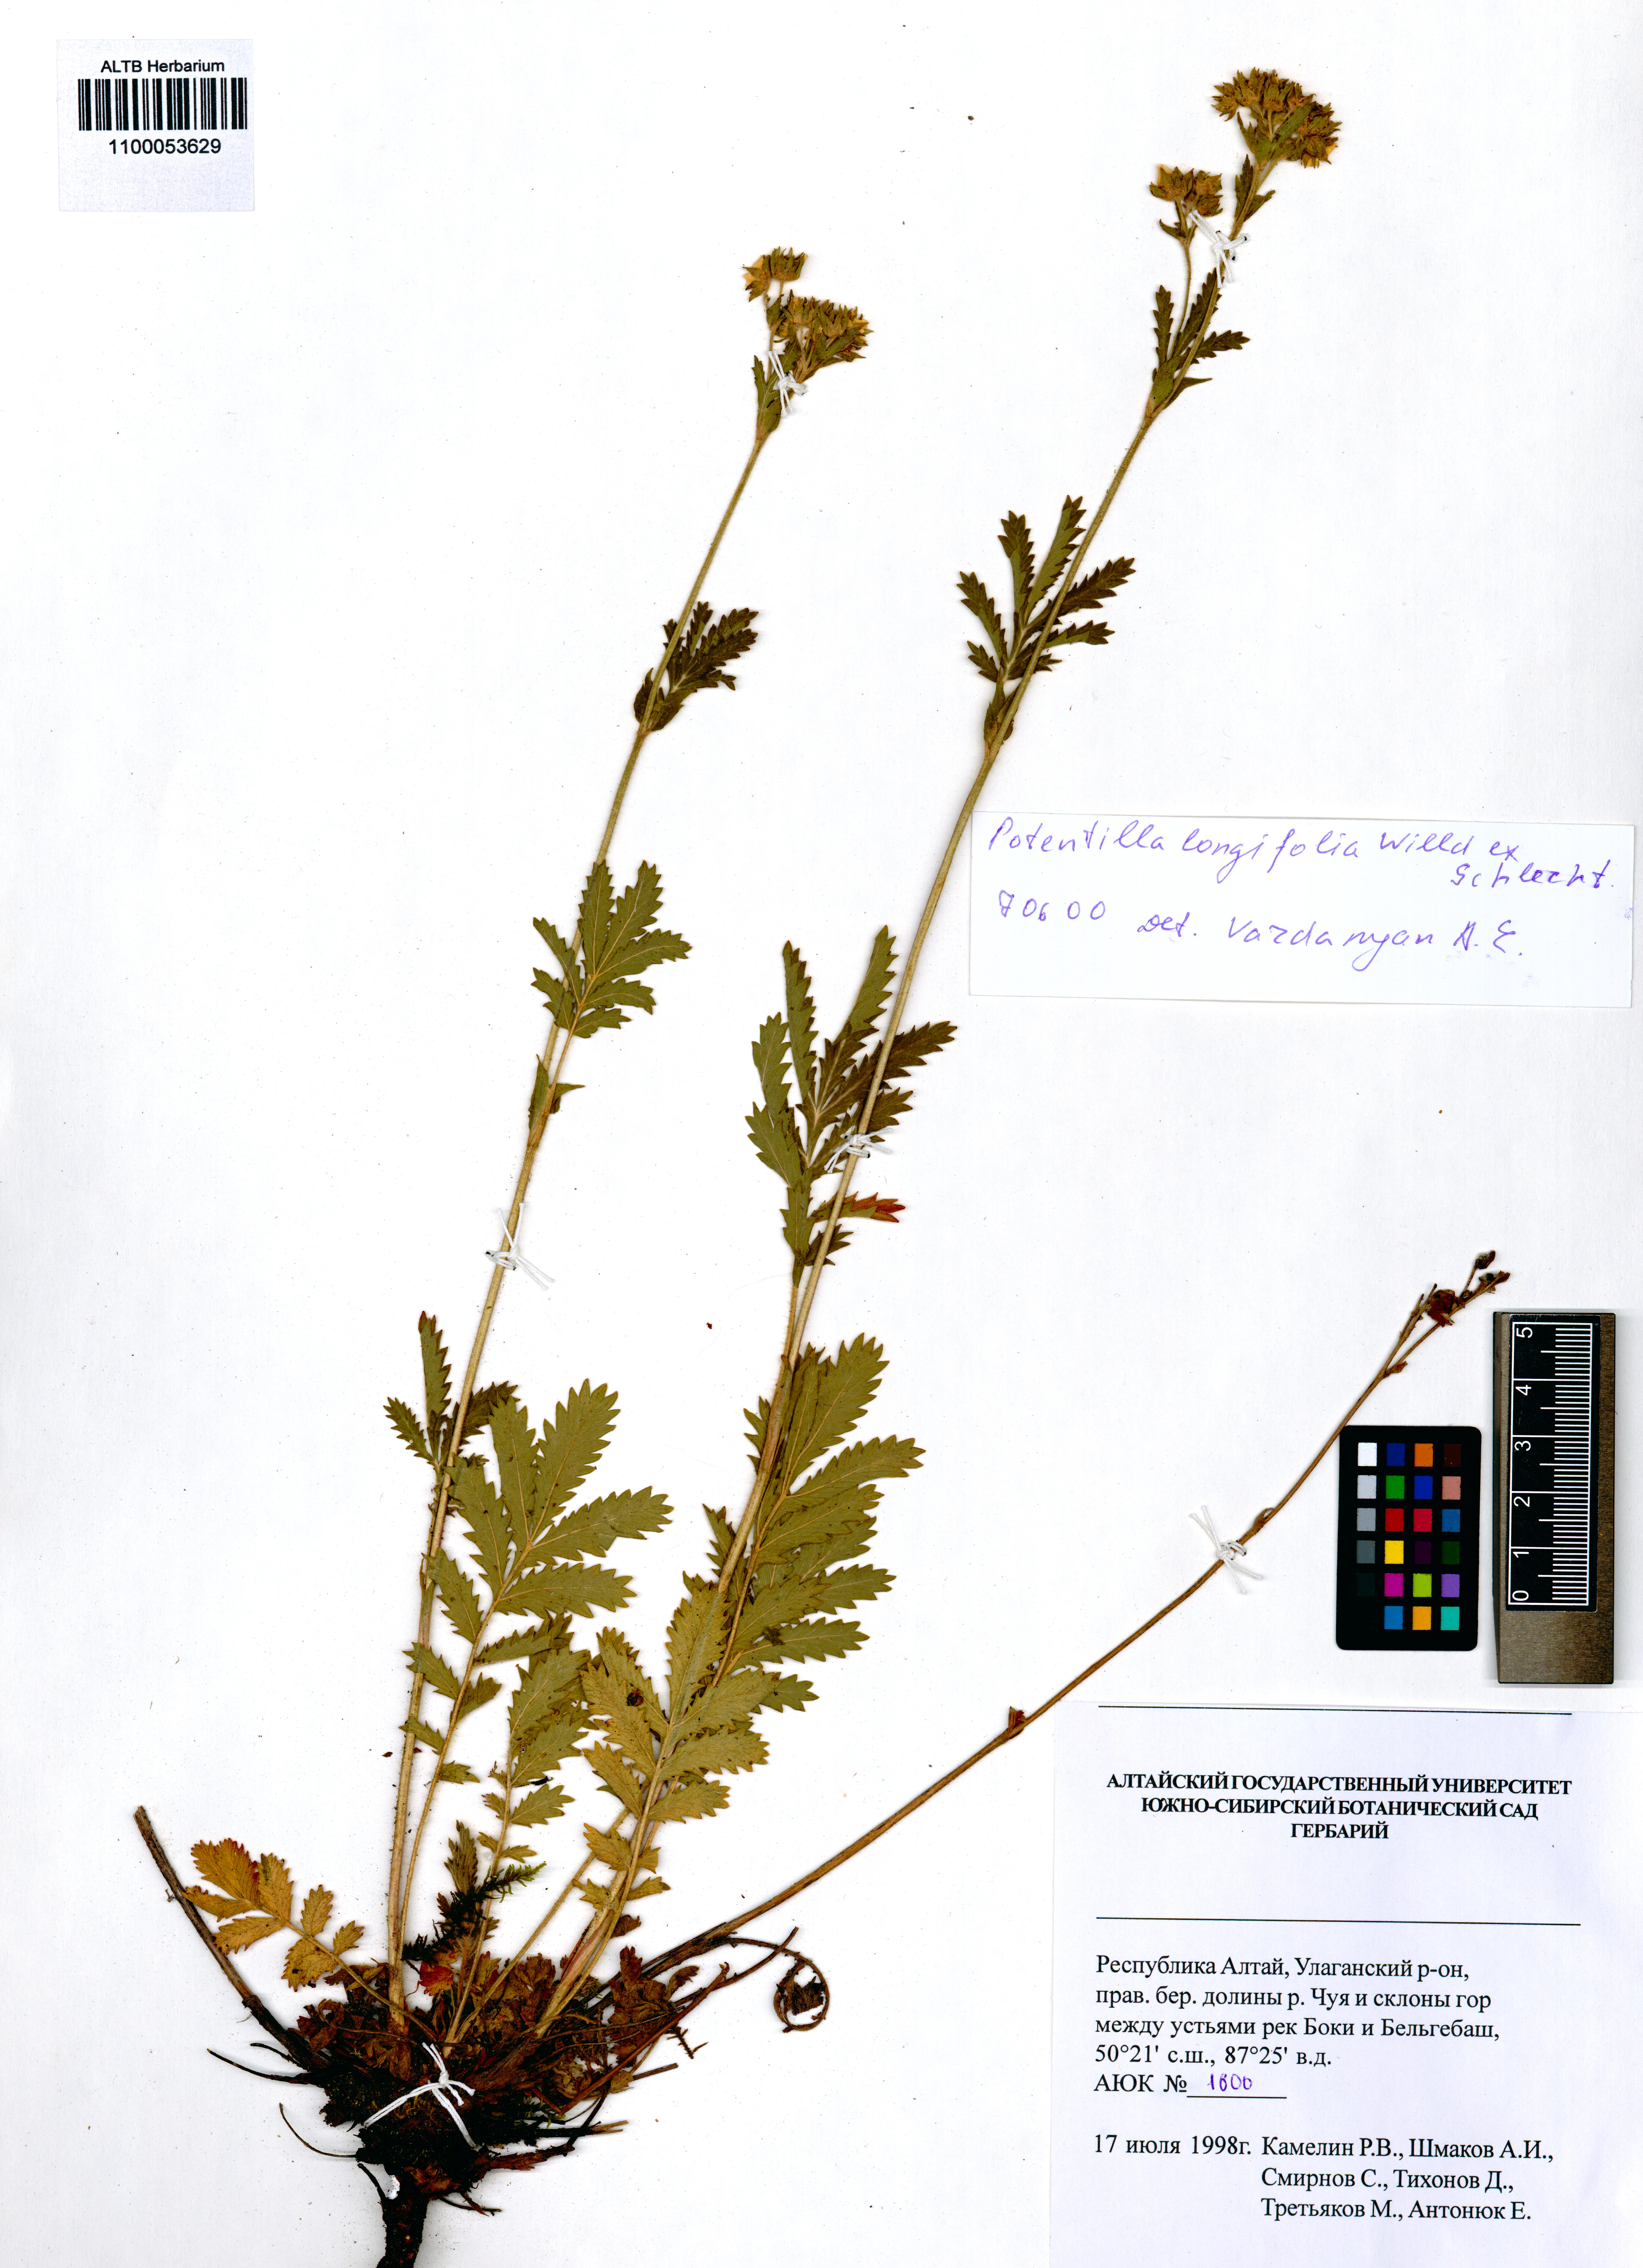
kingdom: Plantae
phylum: Tracheophyta
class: Magnoliopsida
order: Rosales
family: Rosaceae
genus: Potentilla
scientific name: Potentilla longifolia
